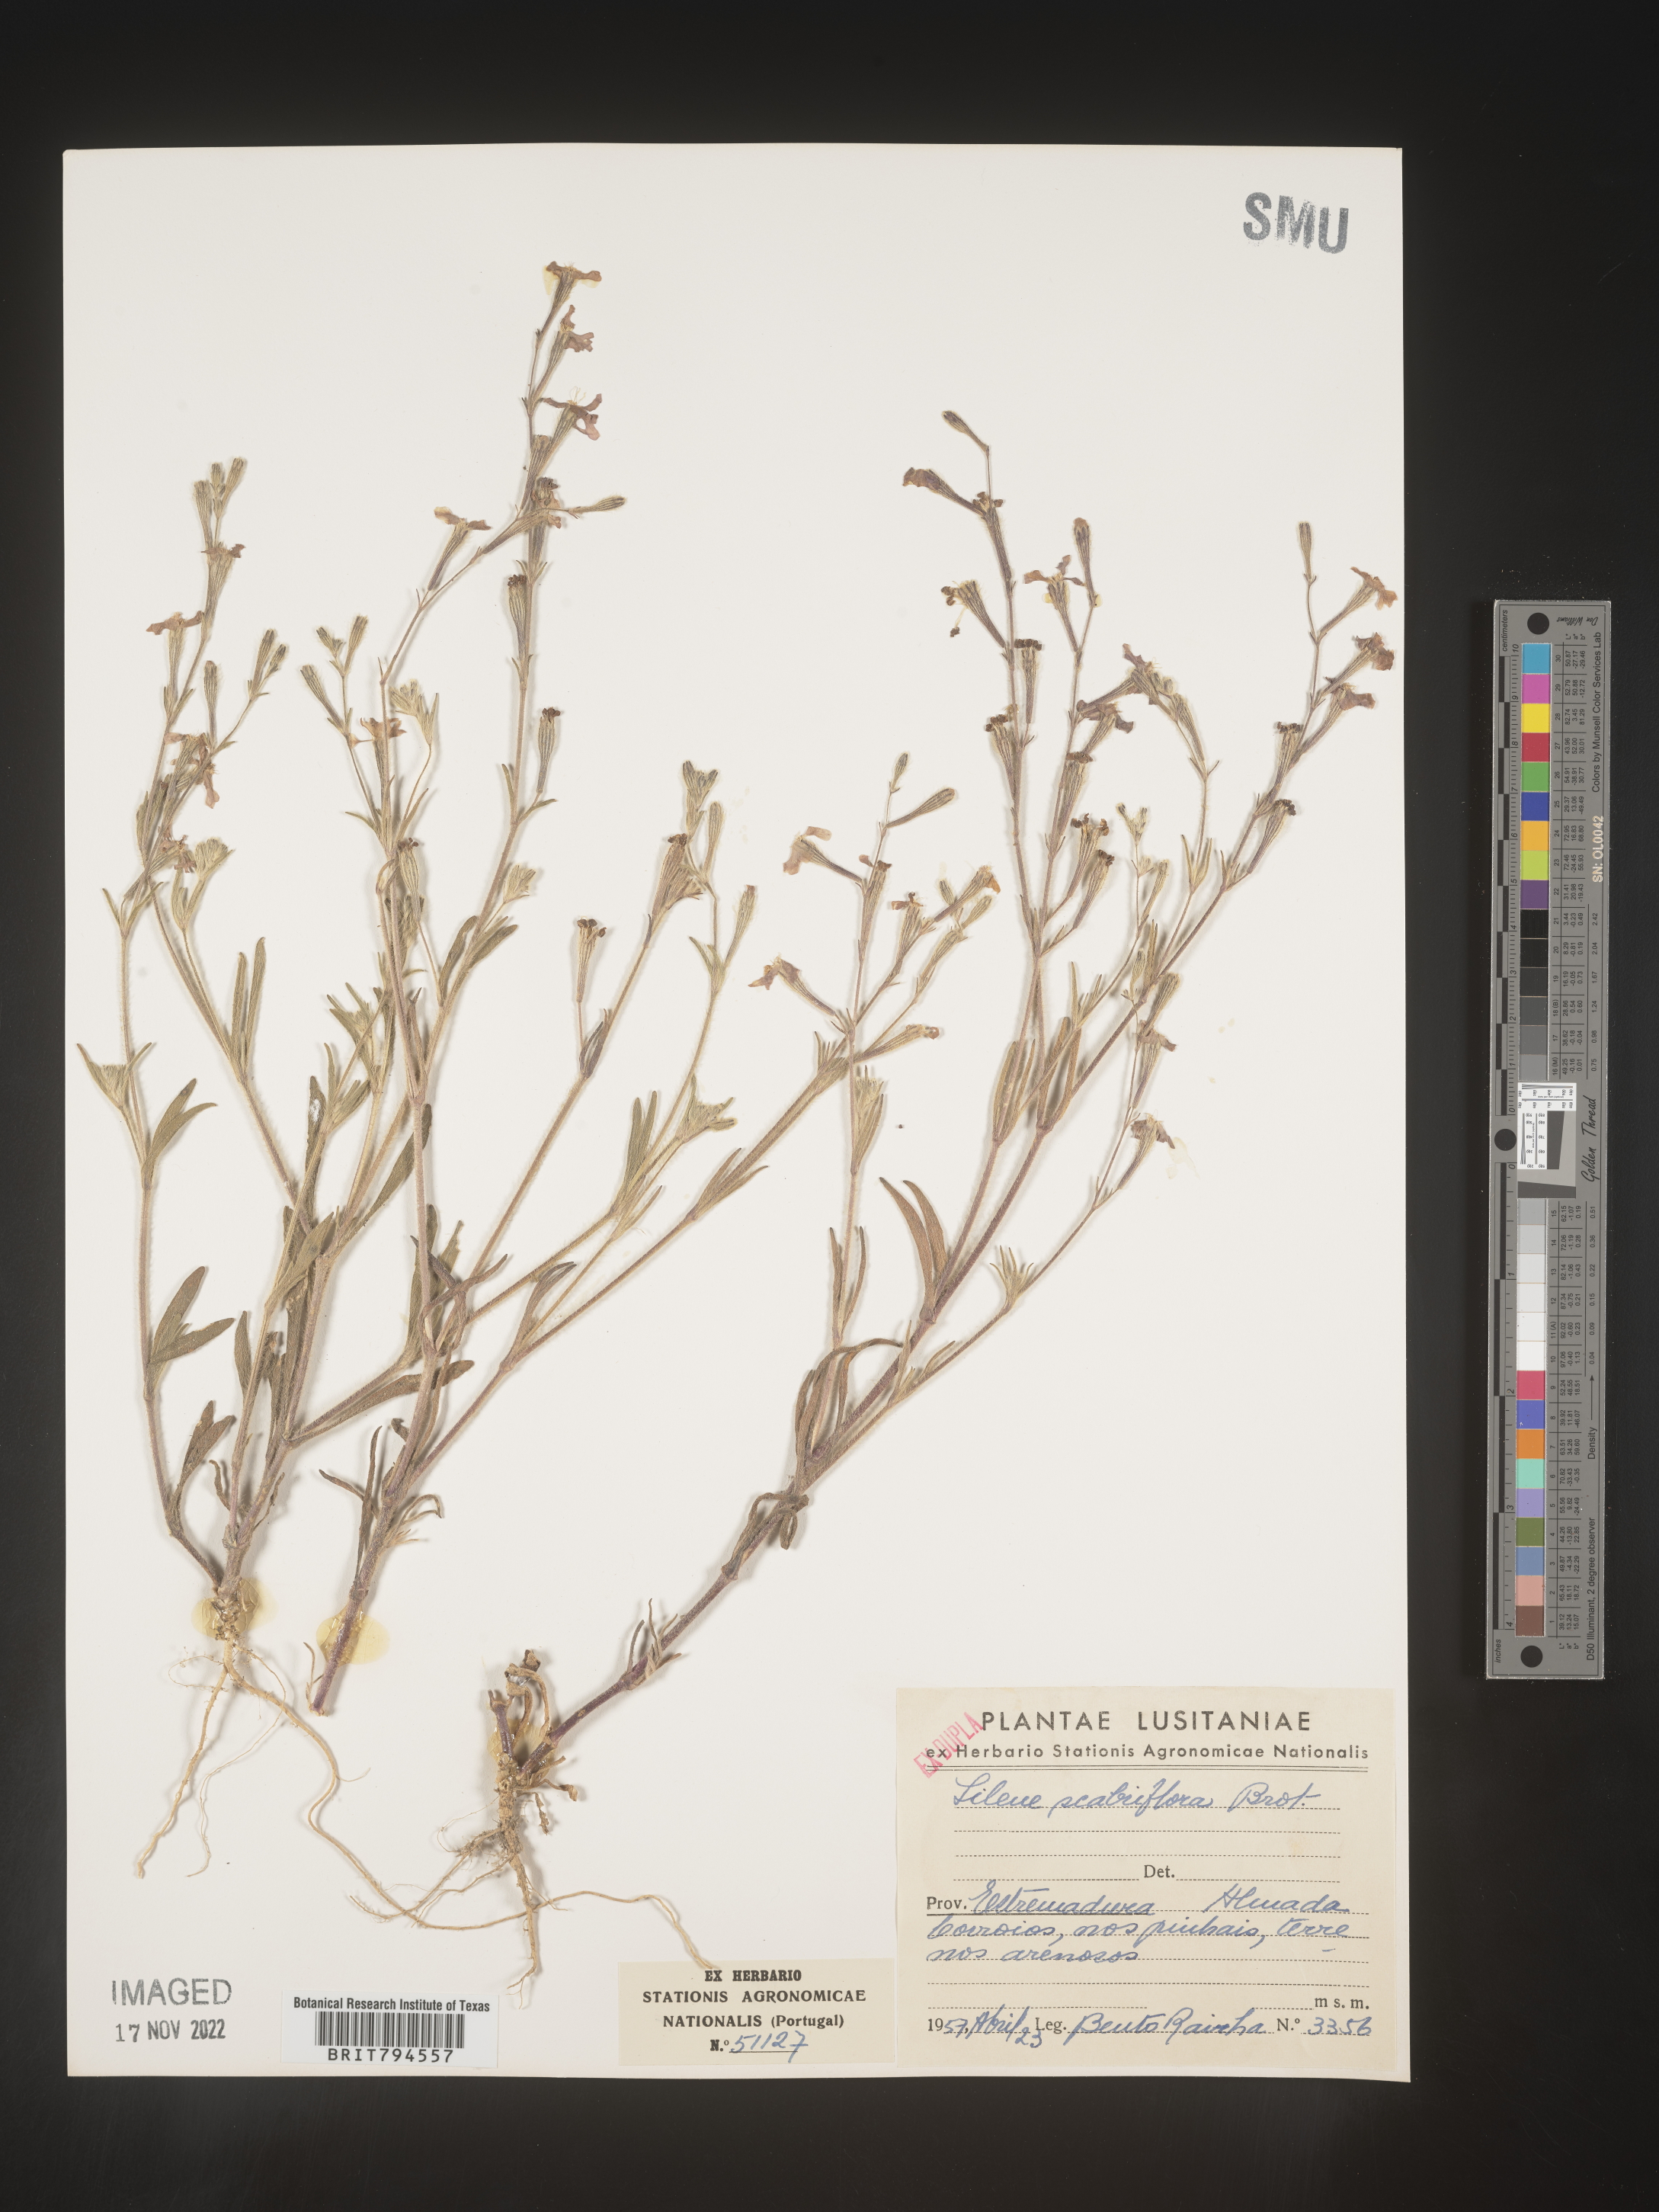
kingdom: Plantae
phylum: Tracheophyta
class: Magnoliopsida
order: Caryophyllales
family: Caryophyllaceae
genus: Silene
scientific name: Silene scabriflora
